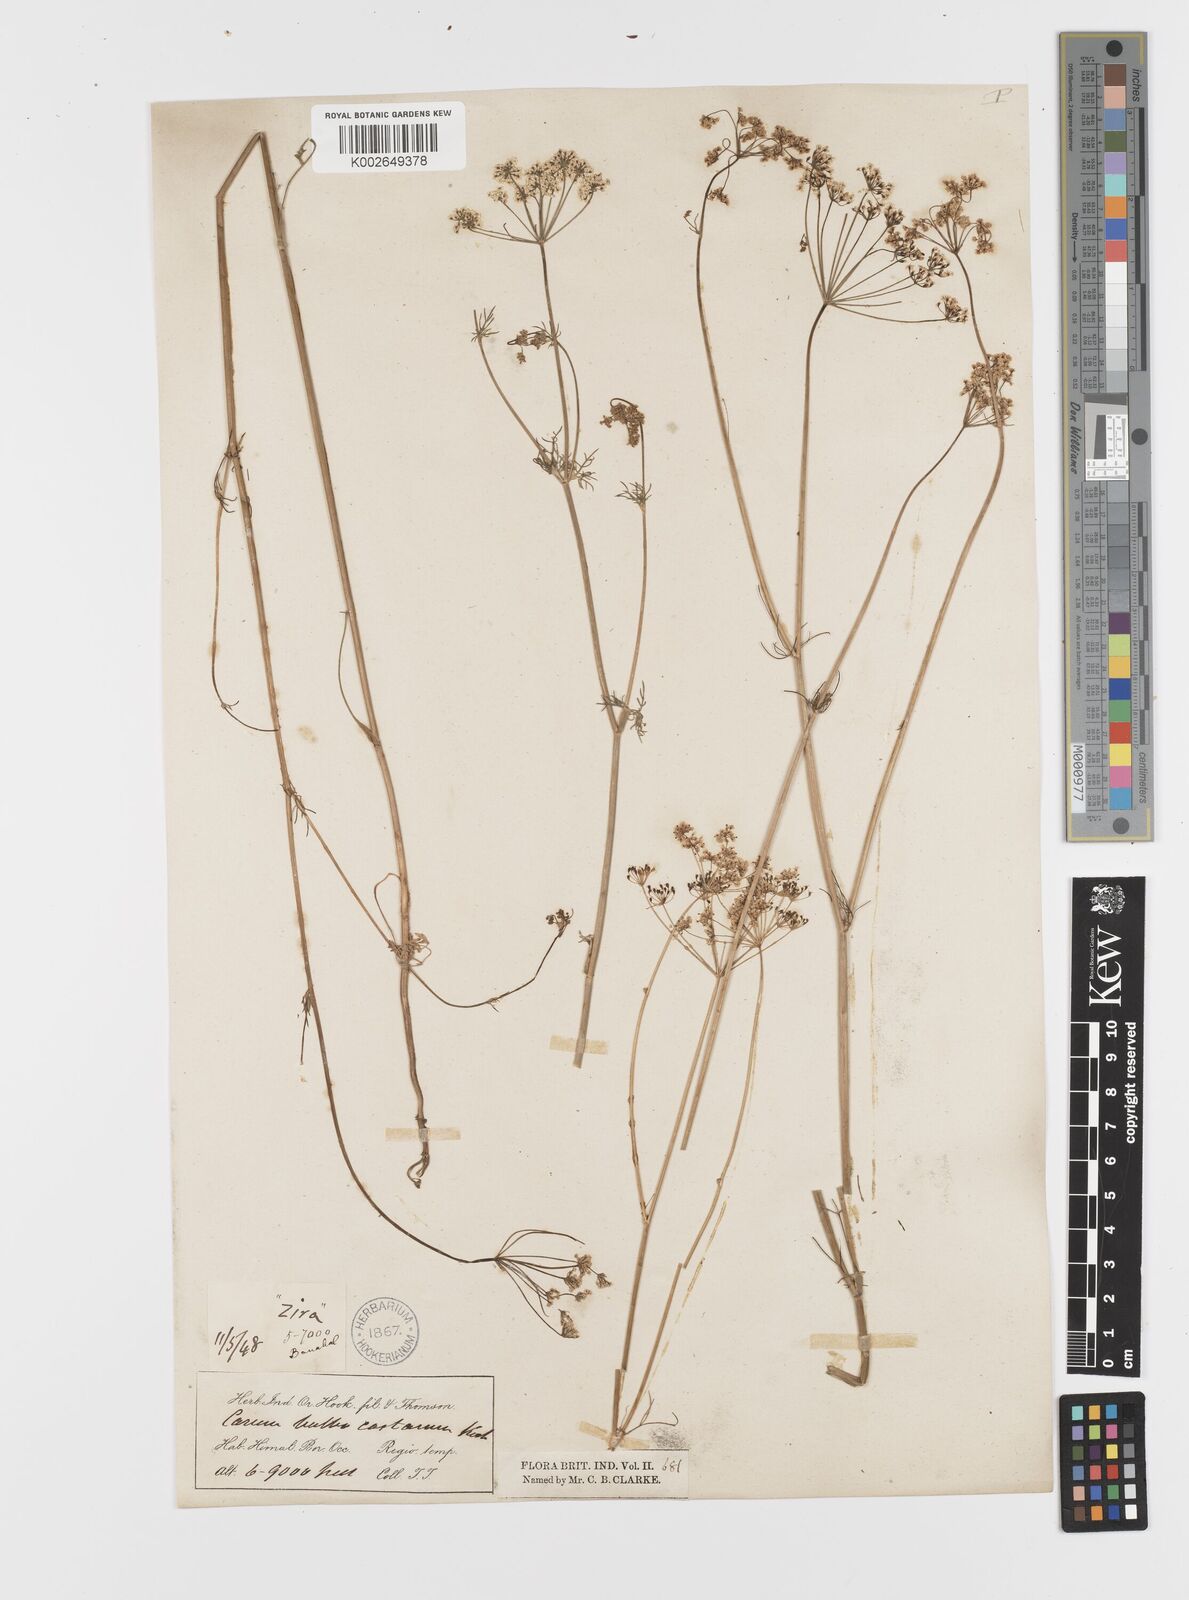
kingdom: Plantae
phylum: Tracheophyta
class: Magnoliopsida
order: Apiales
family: Apiaceae
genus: Bunium
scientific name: Bunium bulbocastanum
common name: Great pignut
